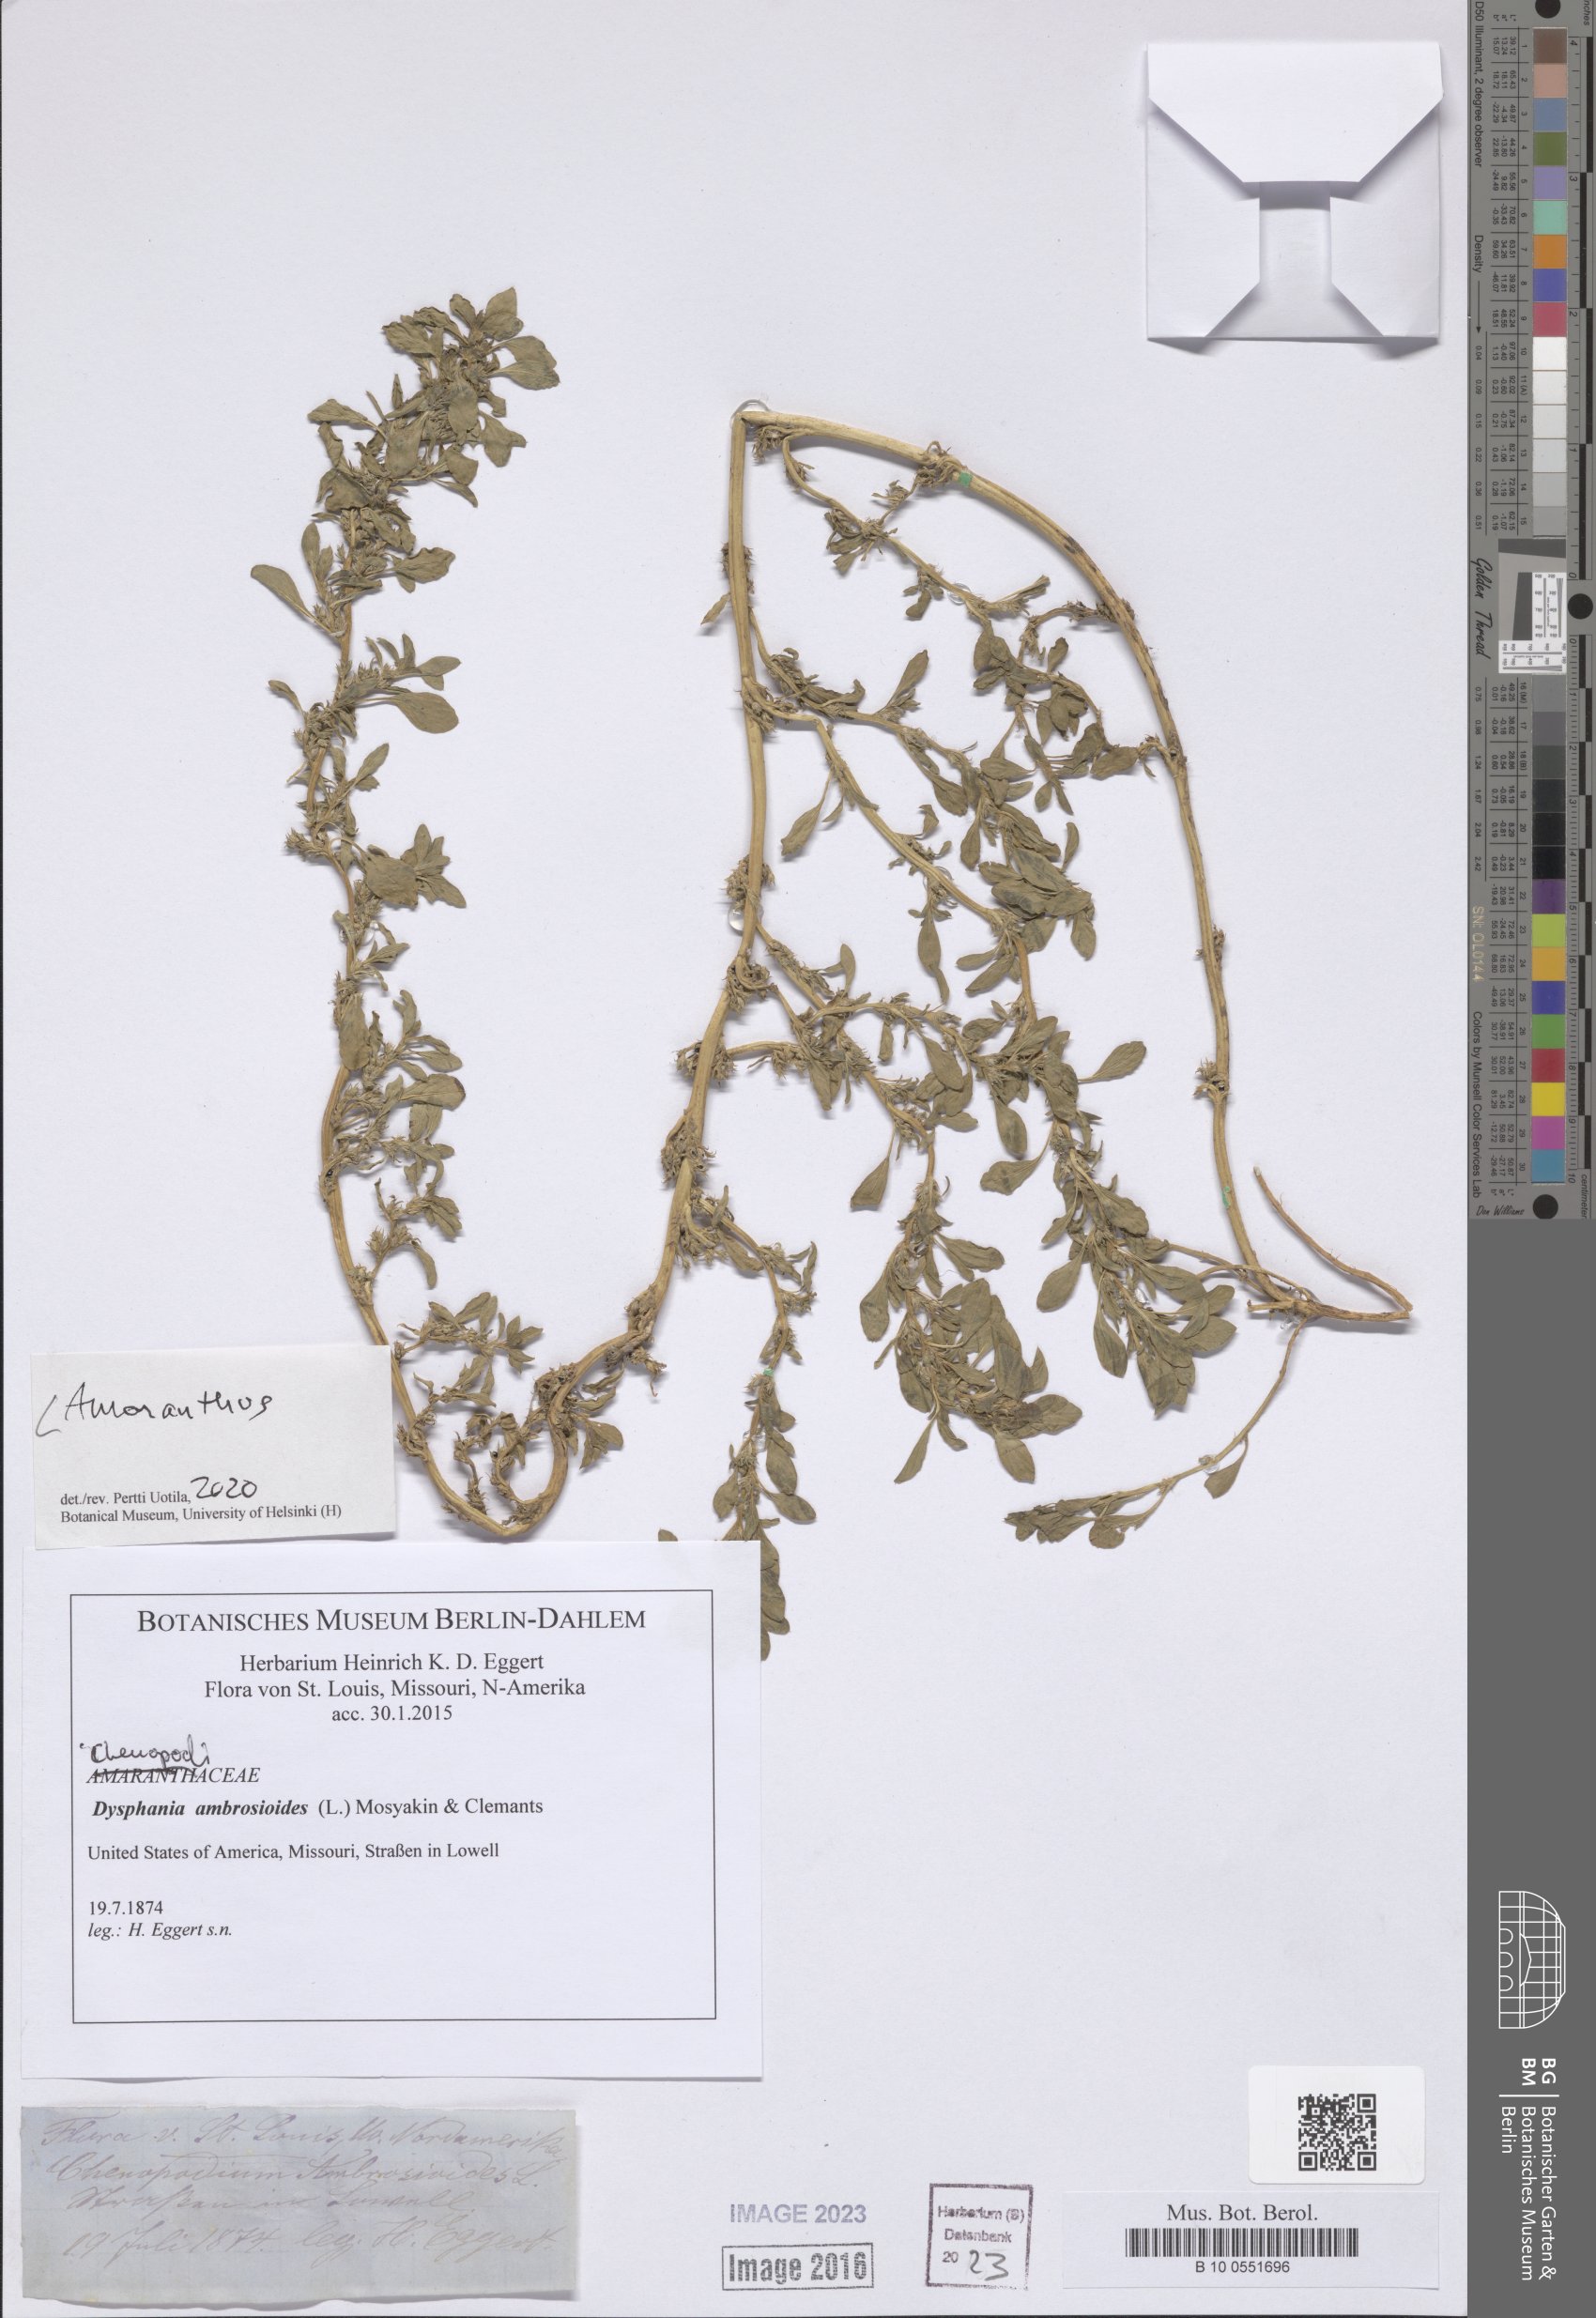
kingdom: Plantae
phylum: Tracheophyta
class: Magnoliopsida
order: Caryophyllales
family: Amaranthaceae
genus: Amaranthus
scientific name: Amaranthus
